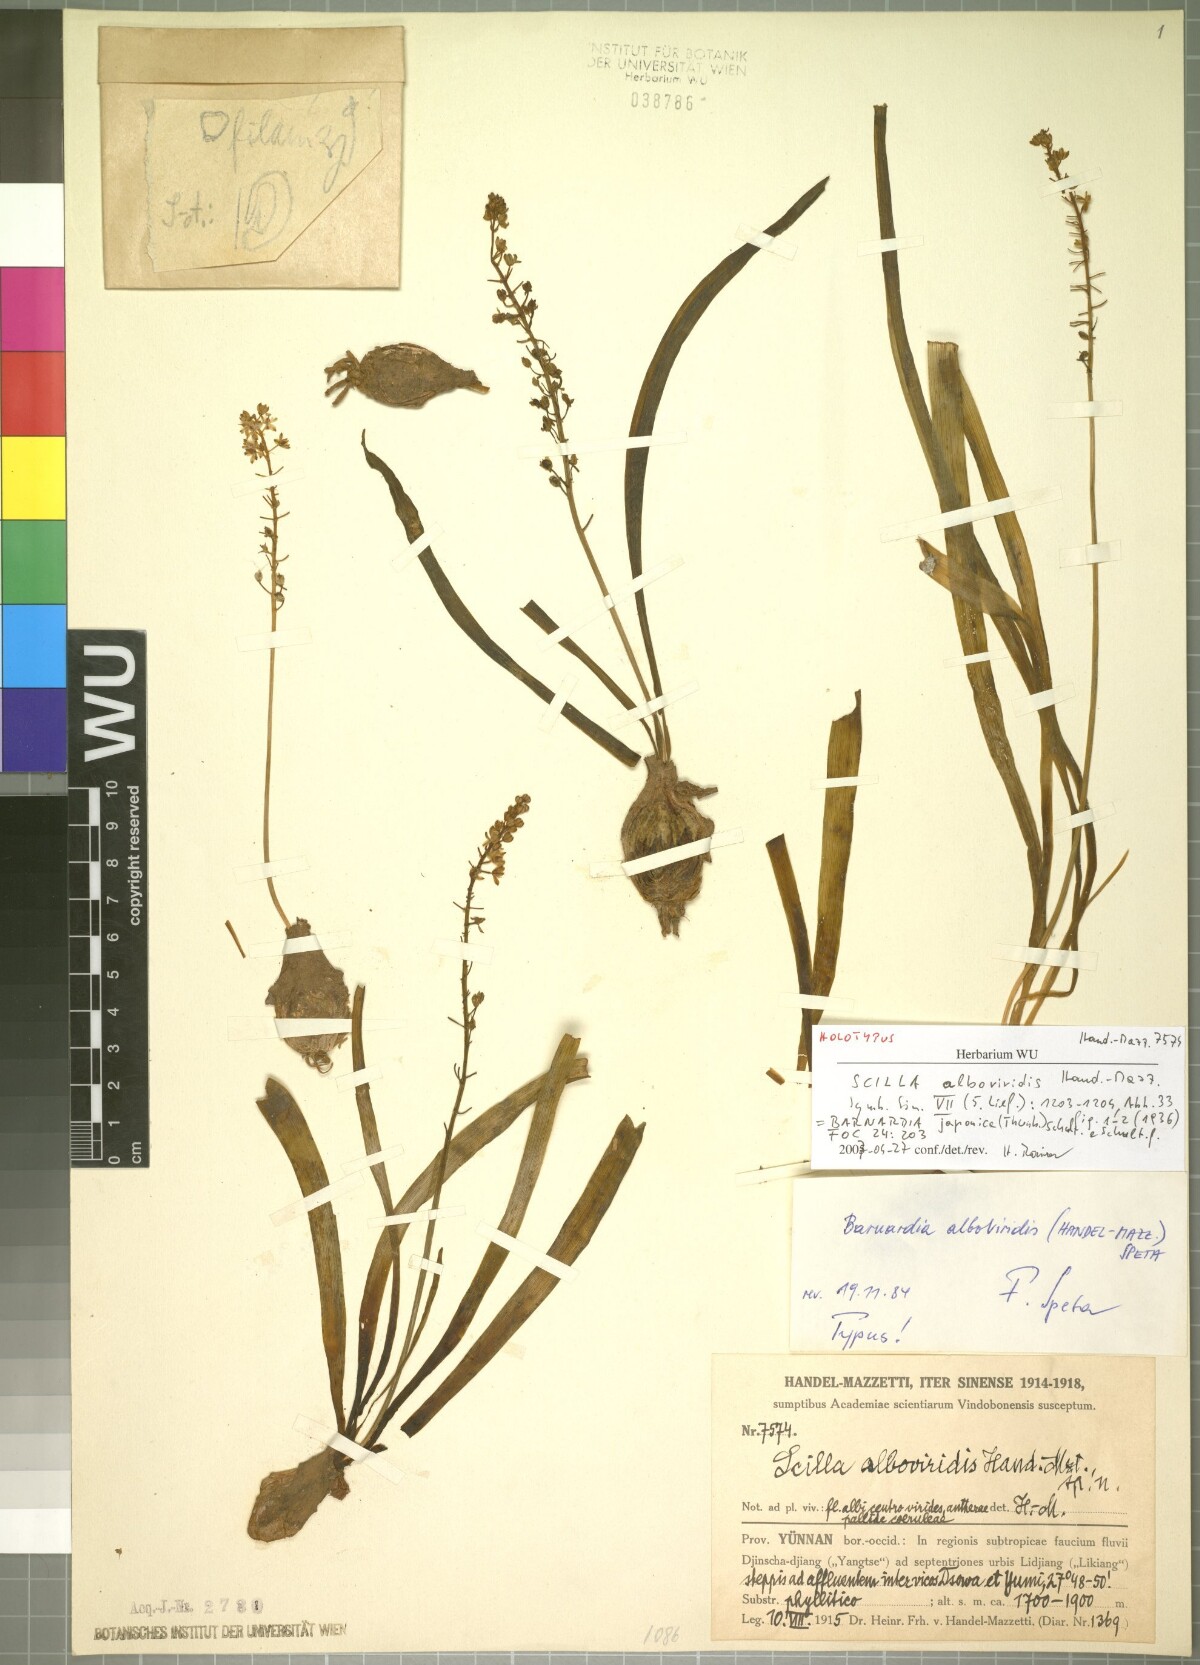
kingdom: Plantae
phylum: Tracheophyta
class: Liliopsida
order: Asparagales
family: Asparagaceae
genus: Barnardia
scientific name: Barnardia japonica
